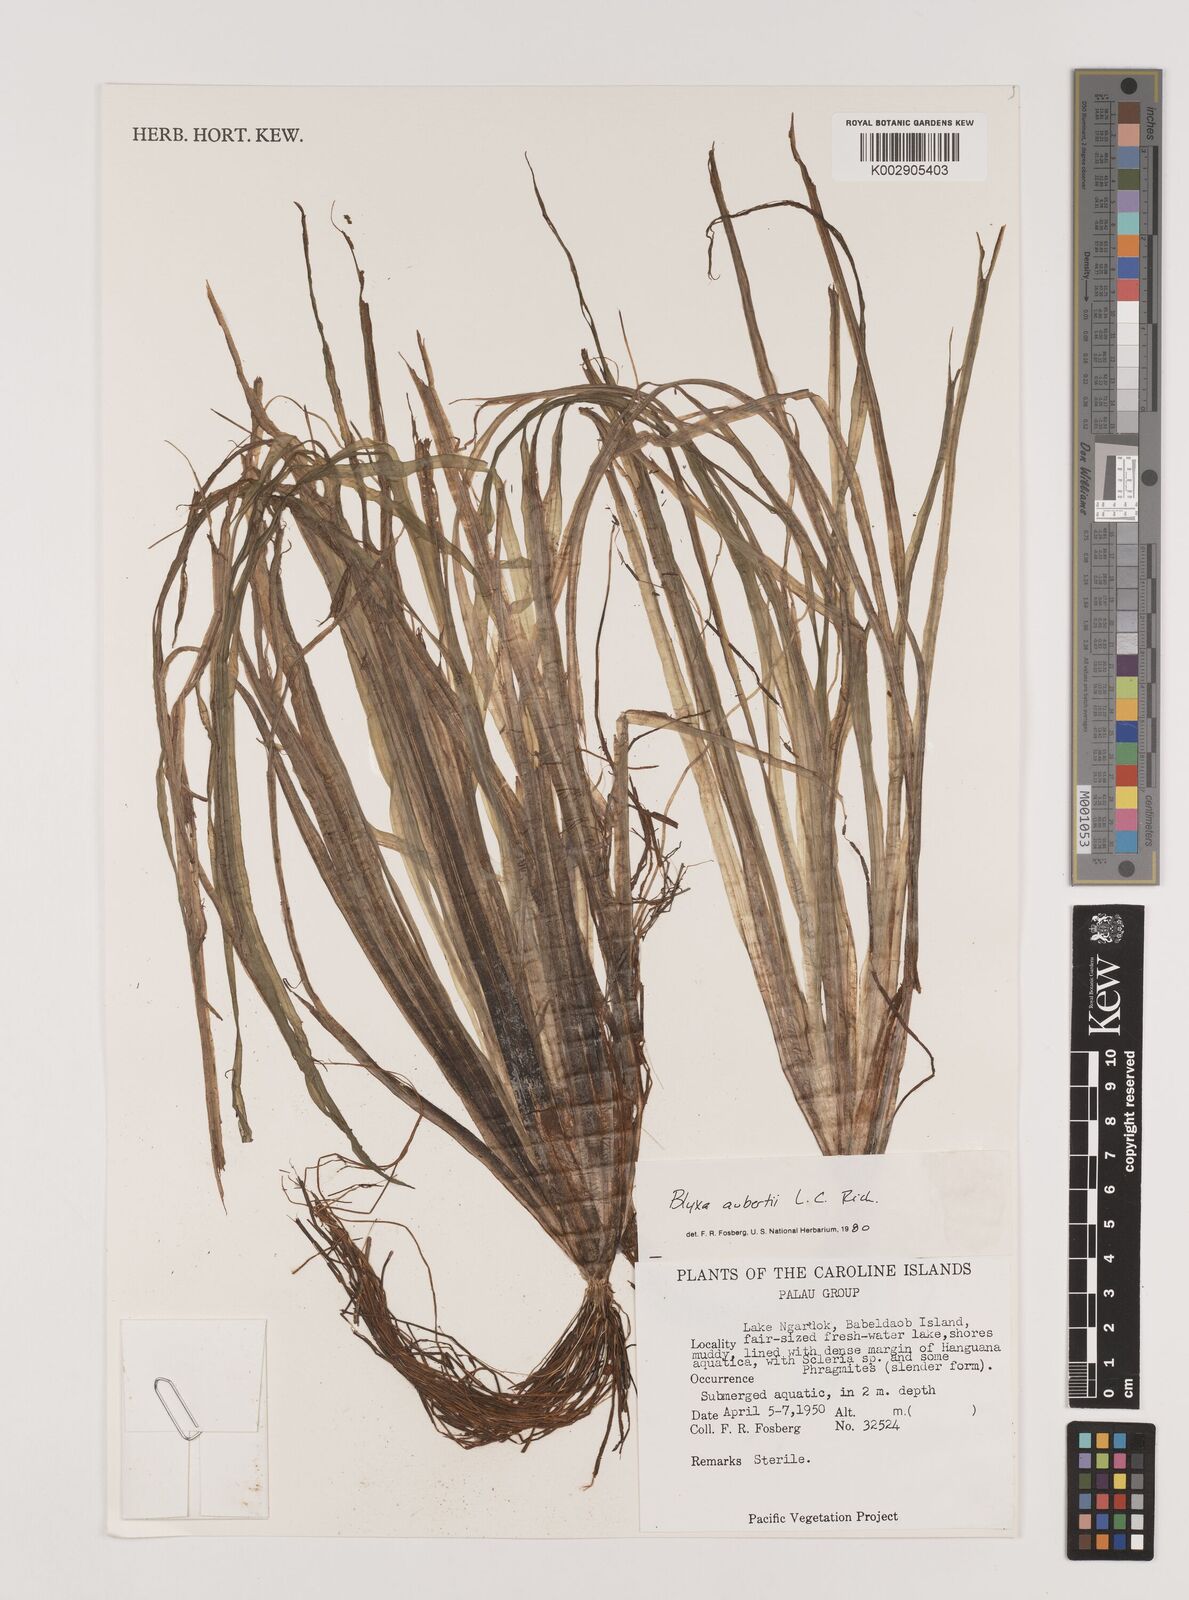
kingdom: Plantae
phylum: Tracheophyta
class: Liliopsida
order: Alismatales
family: Hydrocharitaceae
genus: Blyxa
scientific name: Blyxa aubertii
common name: Roundfruit blyxa
